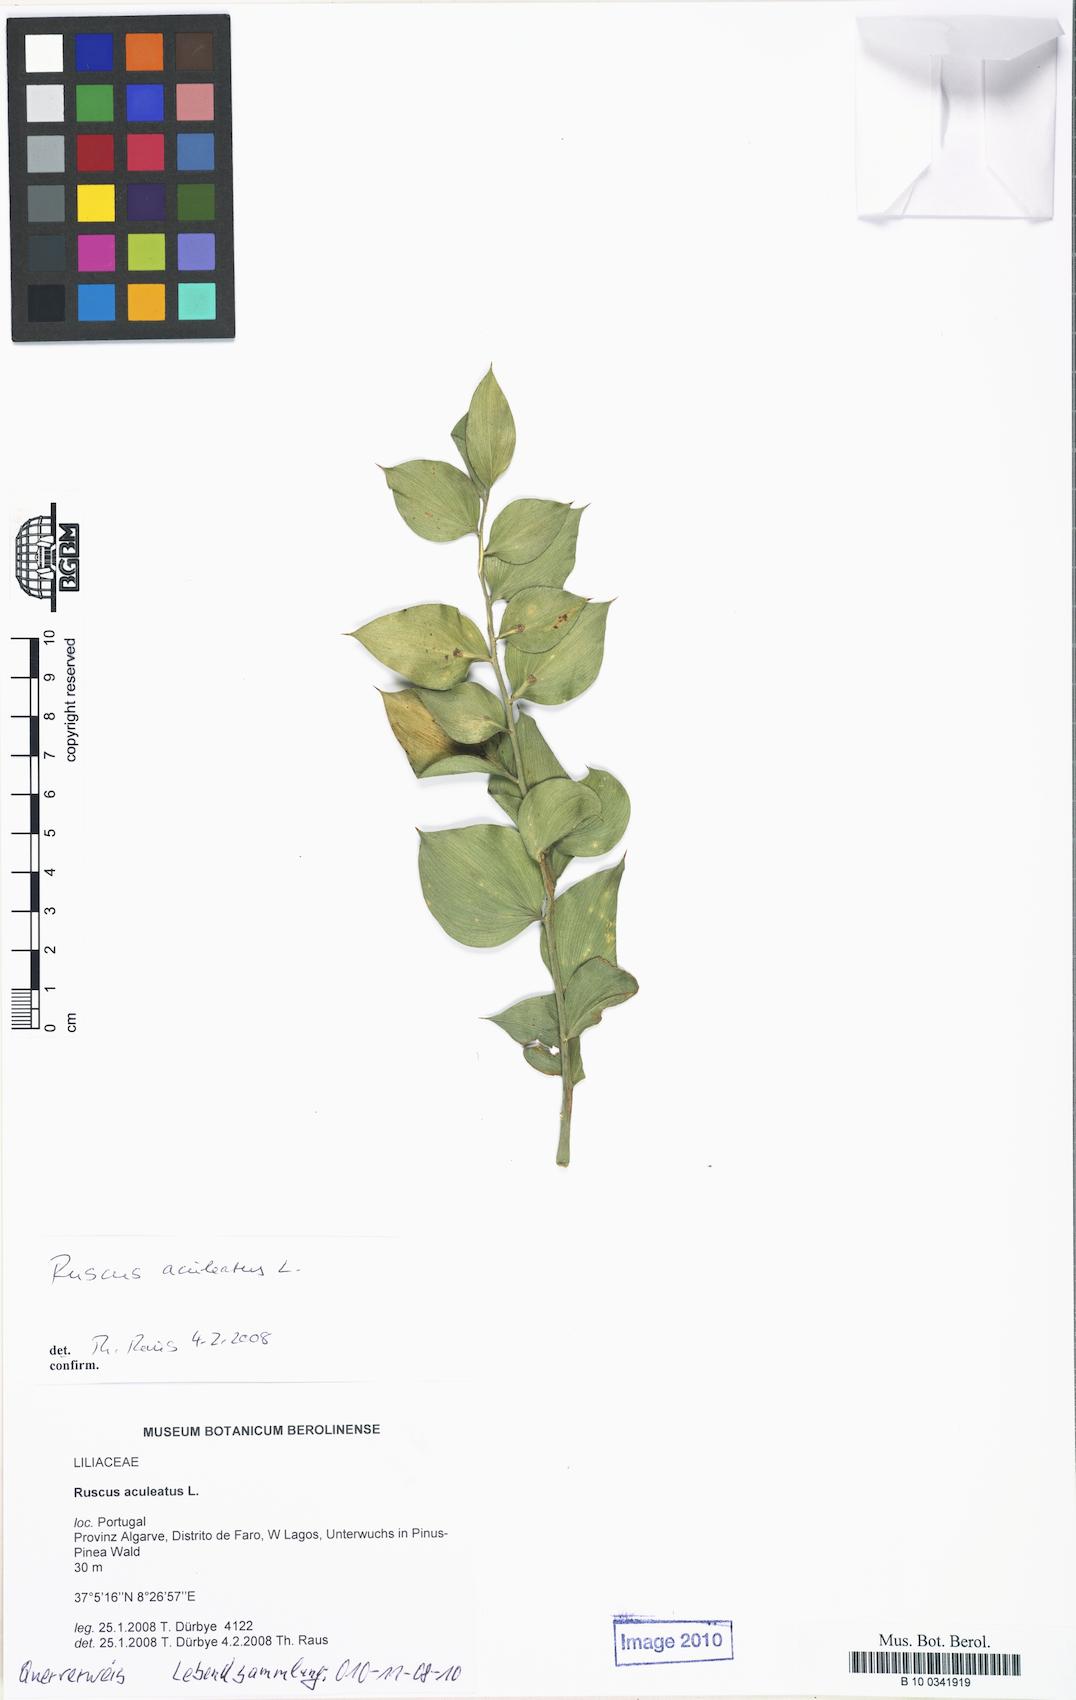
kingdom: Plantae
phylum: Tracheophyta
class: Liliopsida
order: Asparagales
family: Asparagaceae
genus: Ruscus
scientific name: Ruscus aculeatus
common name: Butcher's-broom
